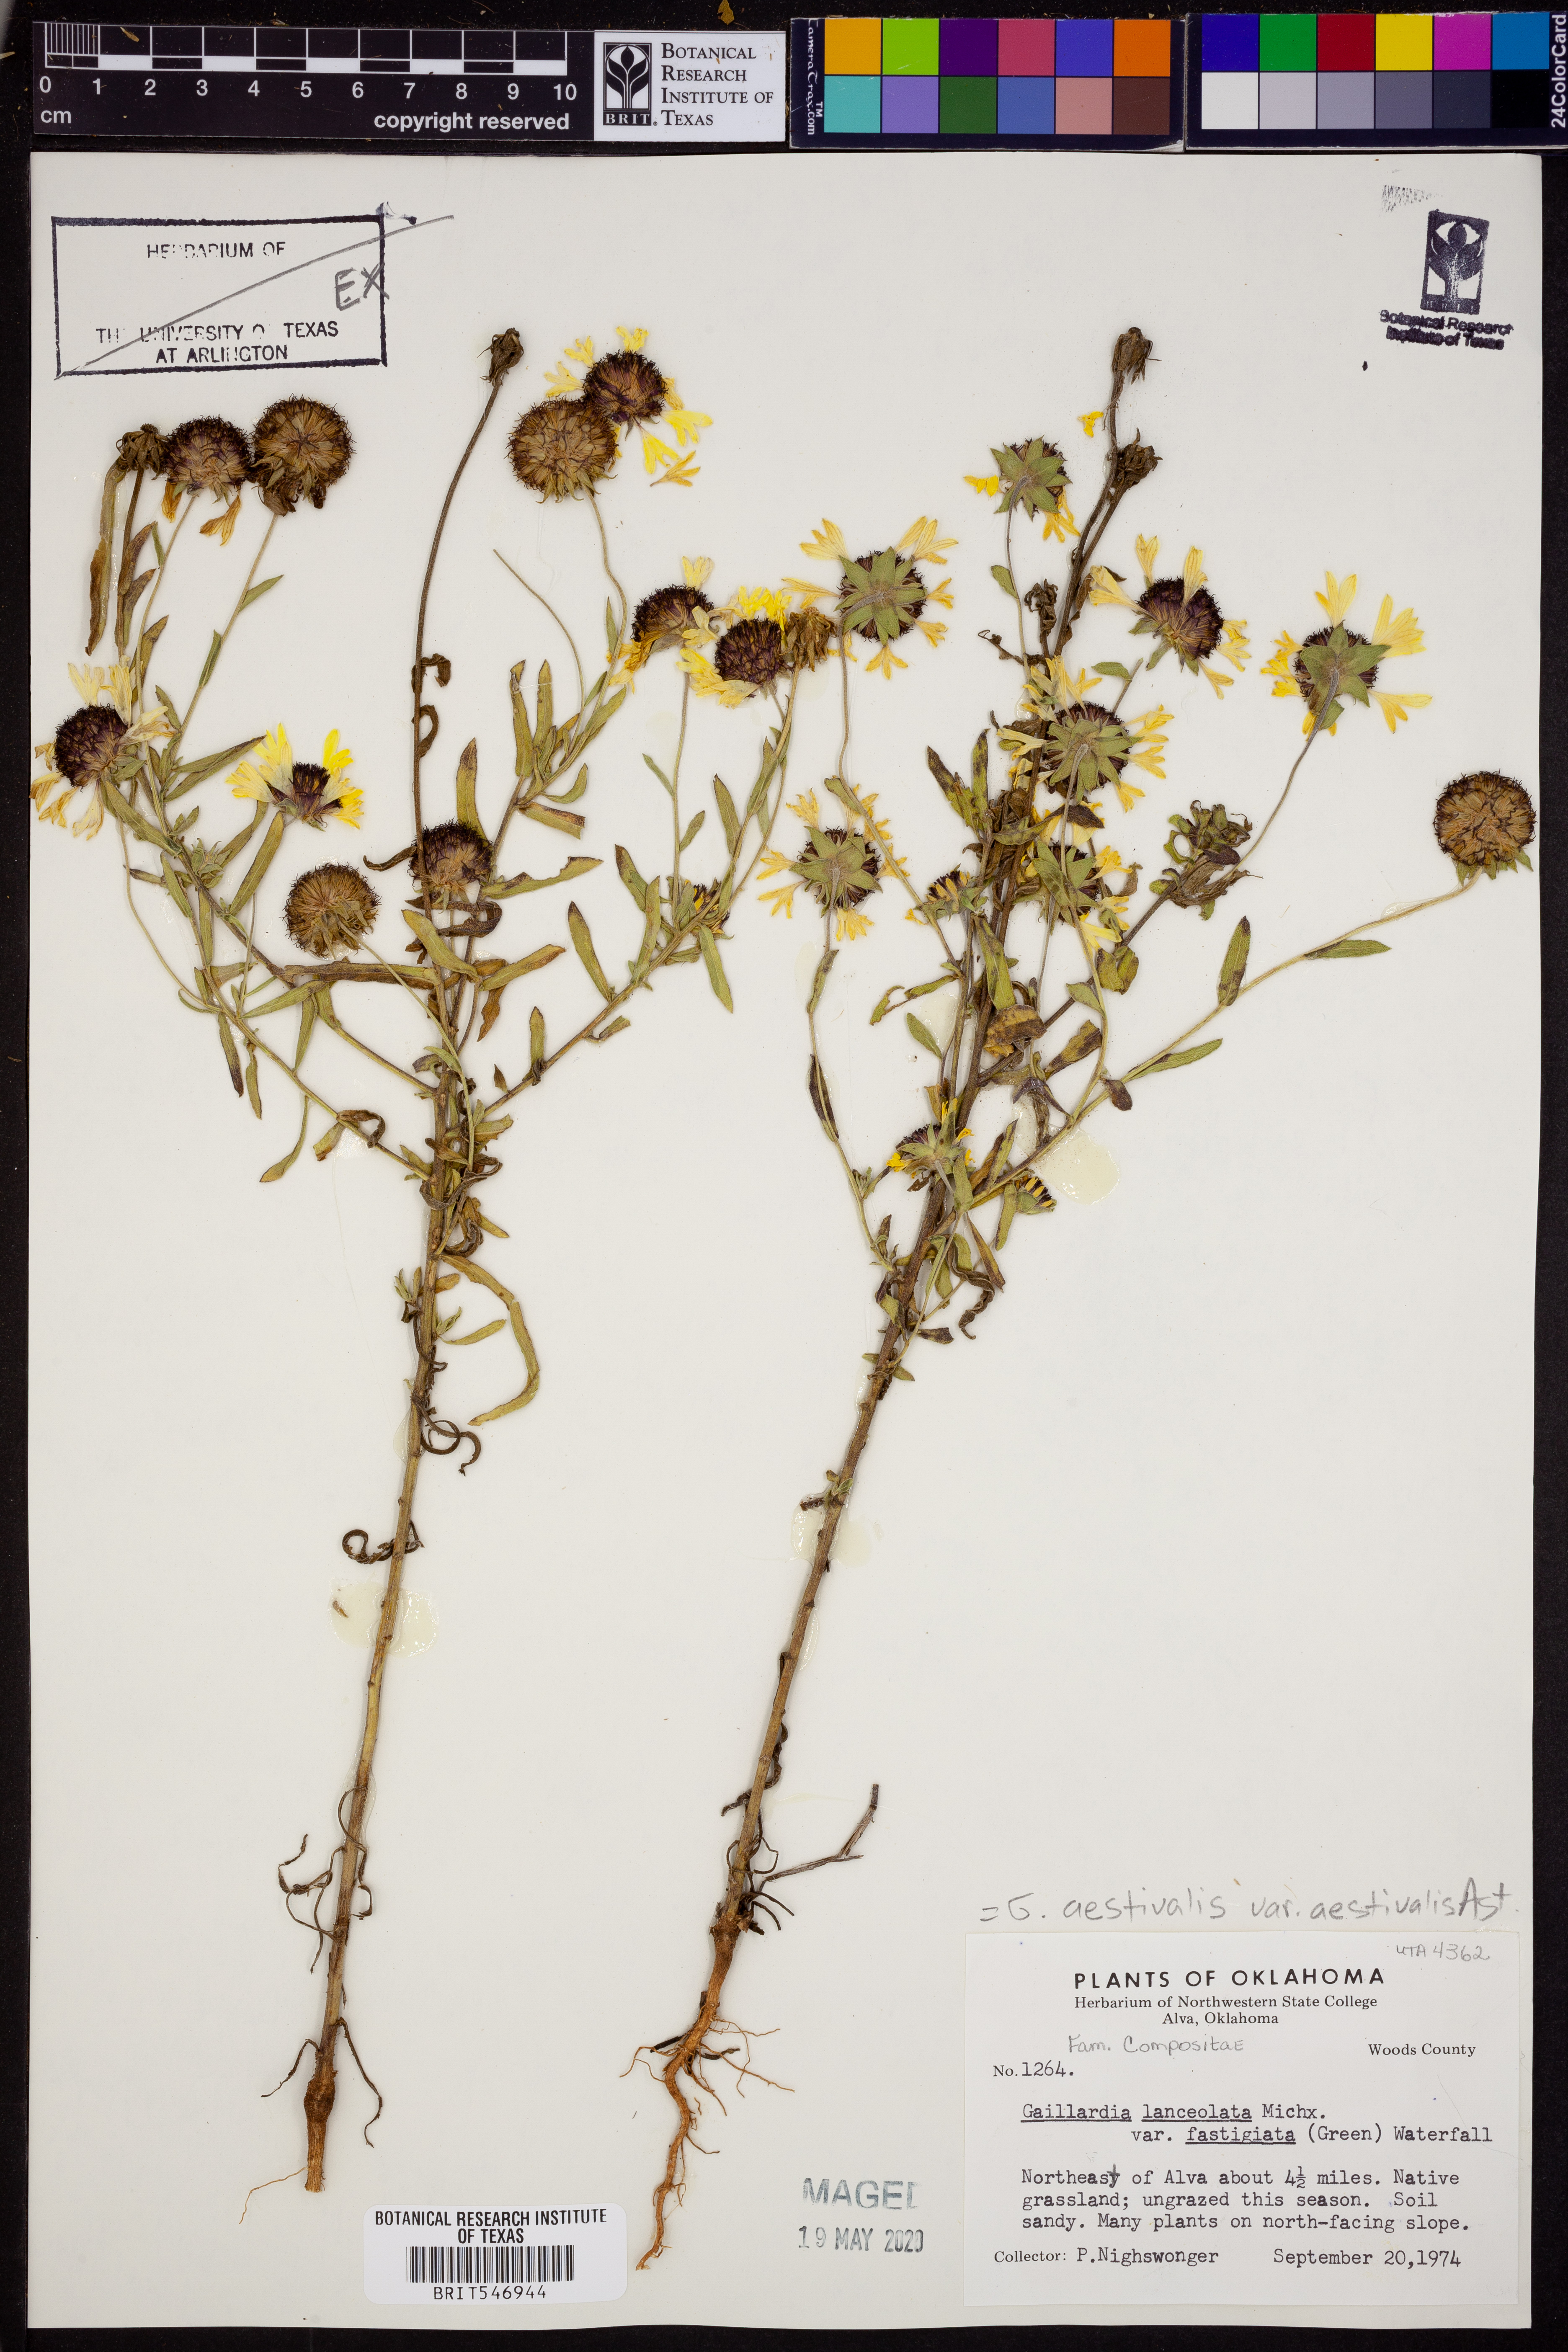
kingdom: Plantae
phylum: Tracheophyta
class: Magnoliopsida
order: Asterales
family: Asteraceae
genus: Gaillardia
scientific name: Gaillardia aestivalis
